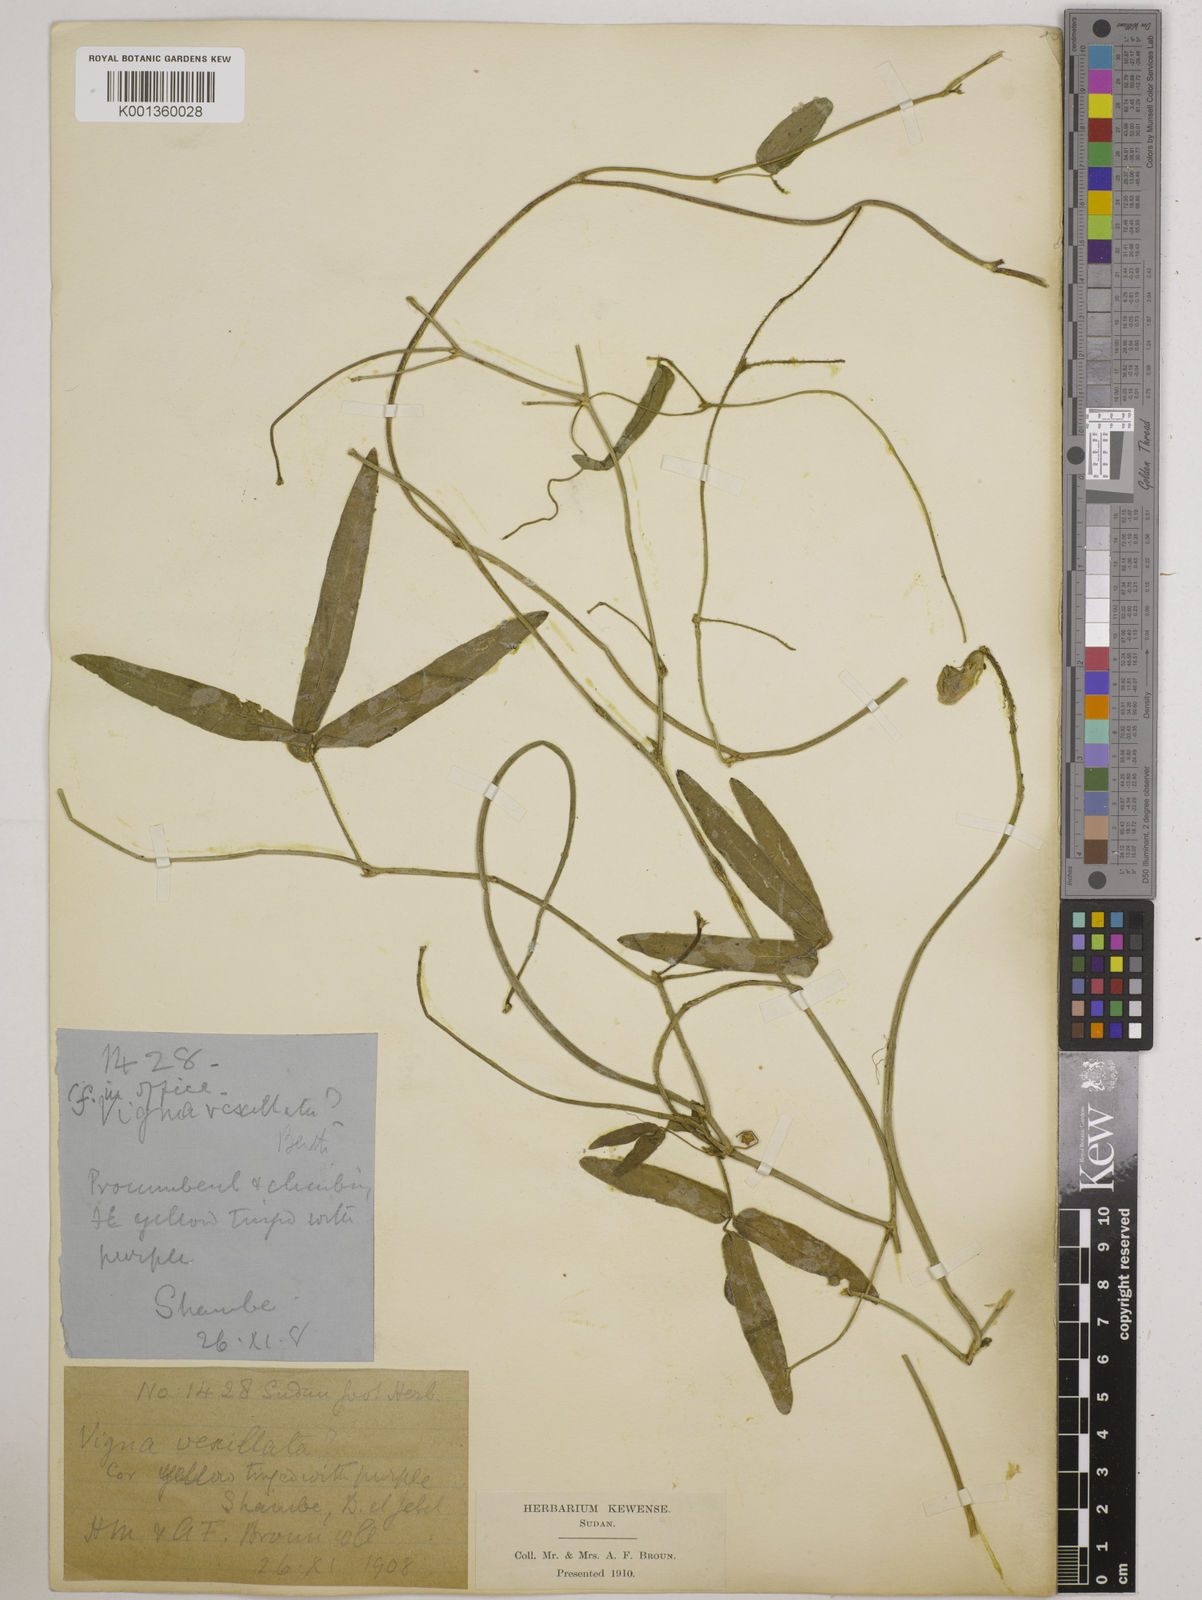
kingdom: Plantae
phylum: Tracheophyta
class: Magnoliopsida
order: Fabales
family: Fabaceae
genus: Vigna
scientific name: Vigna vexillata
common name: Zombi pea
